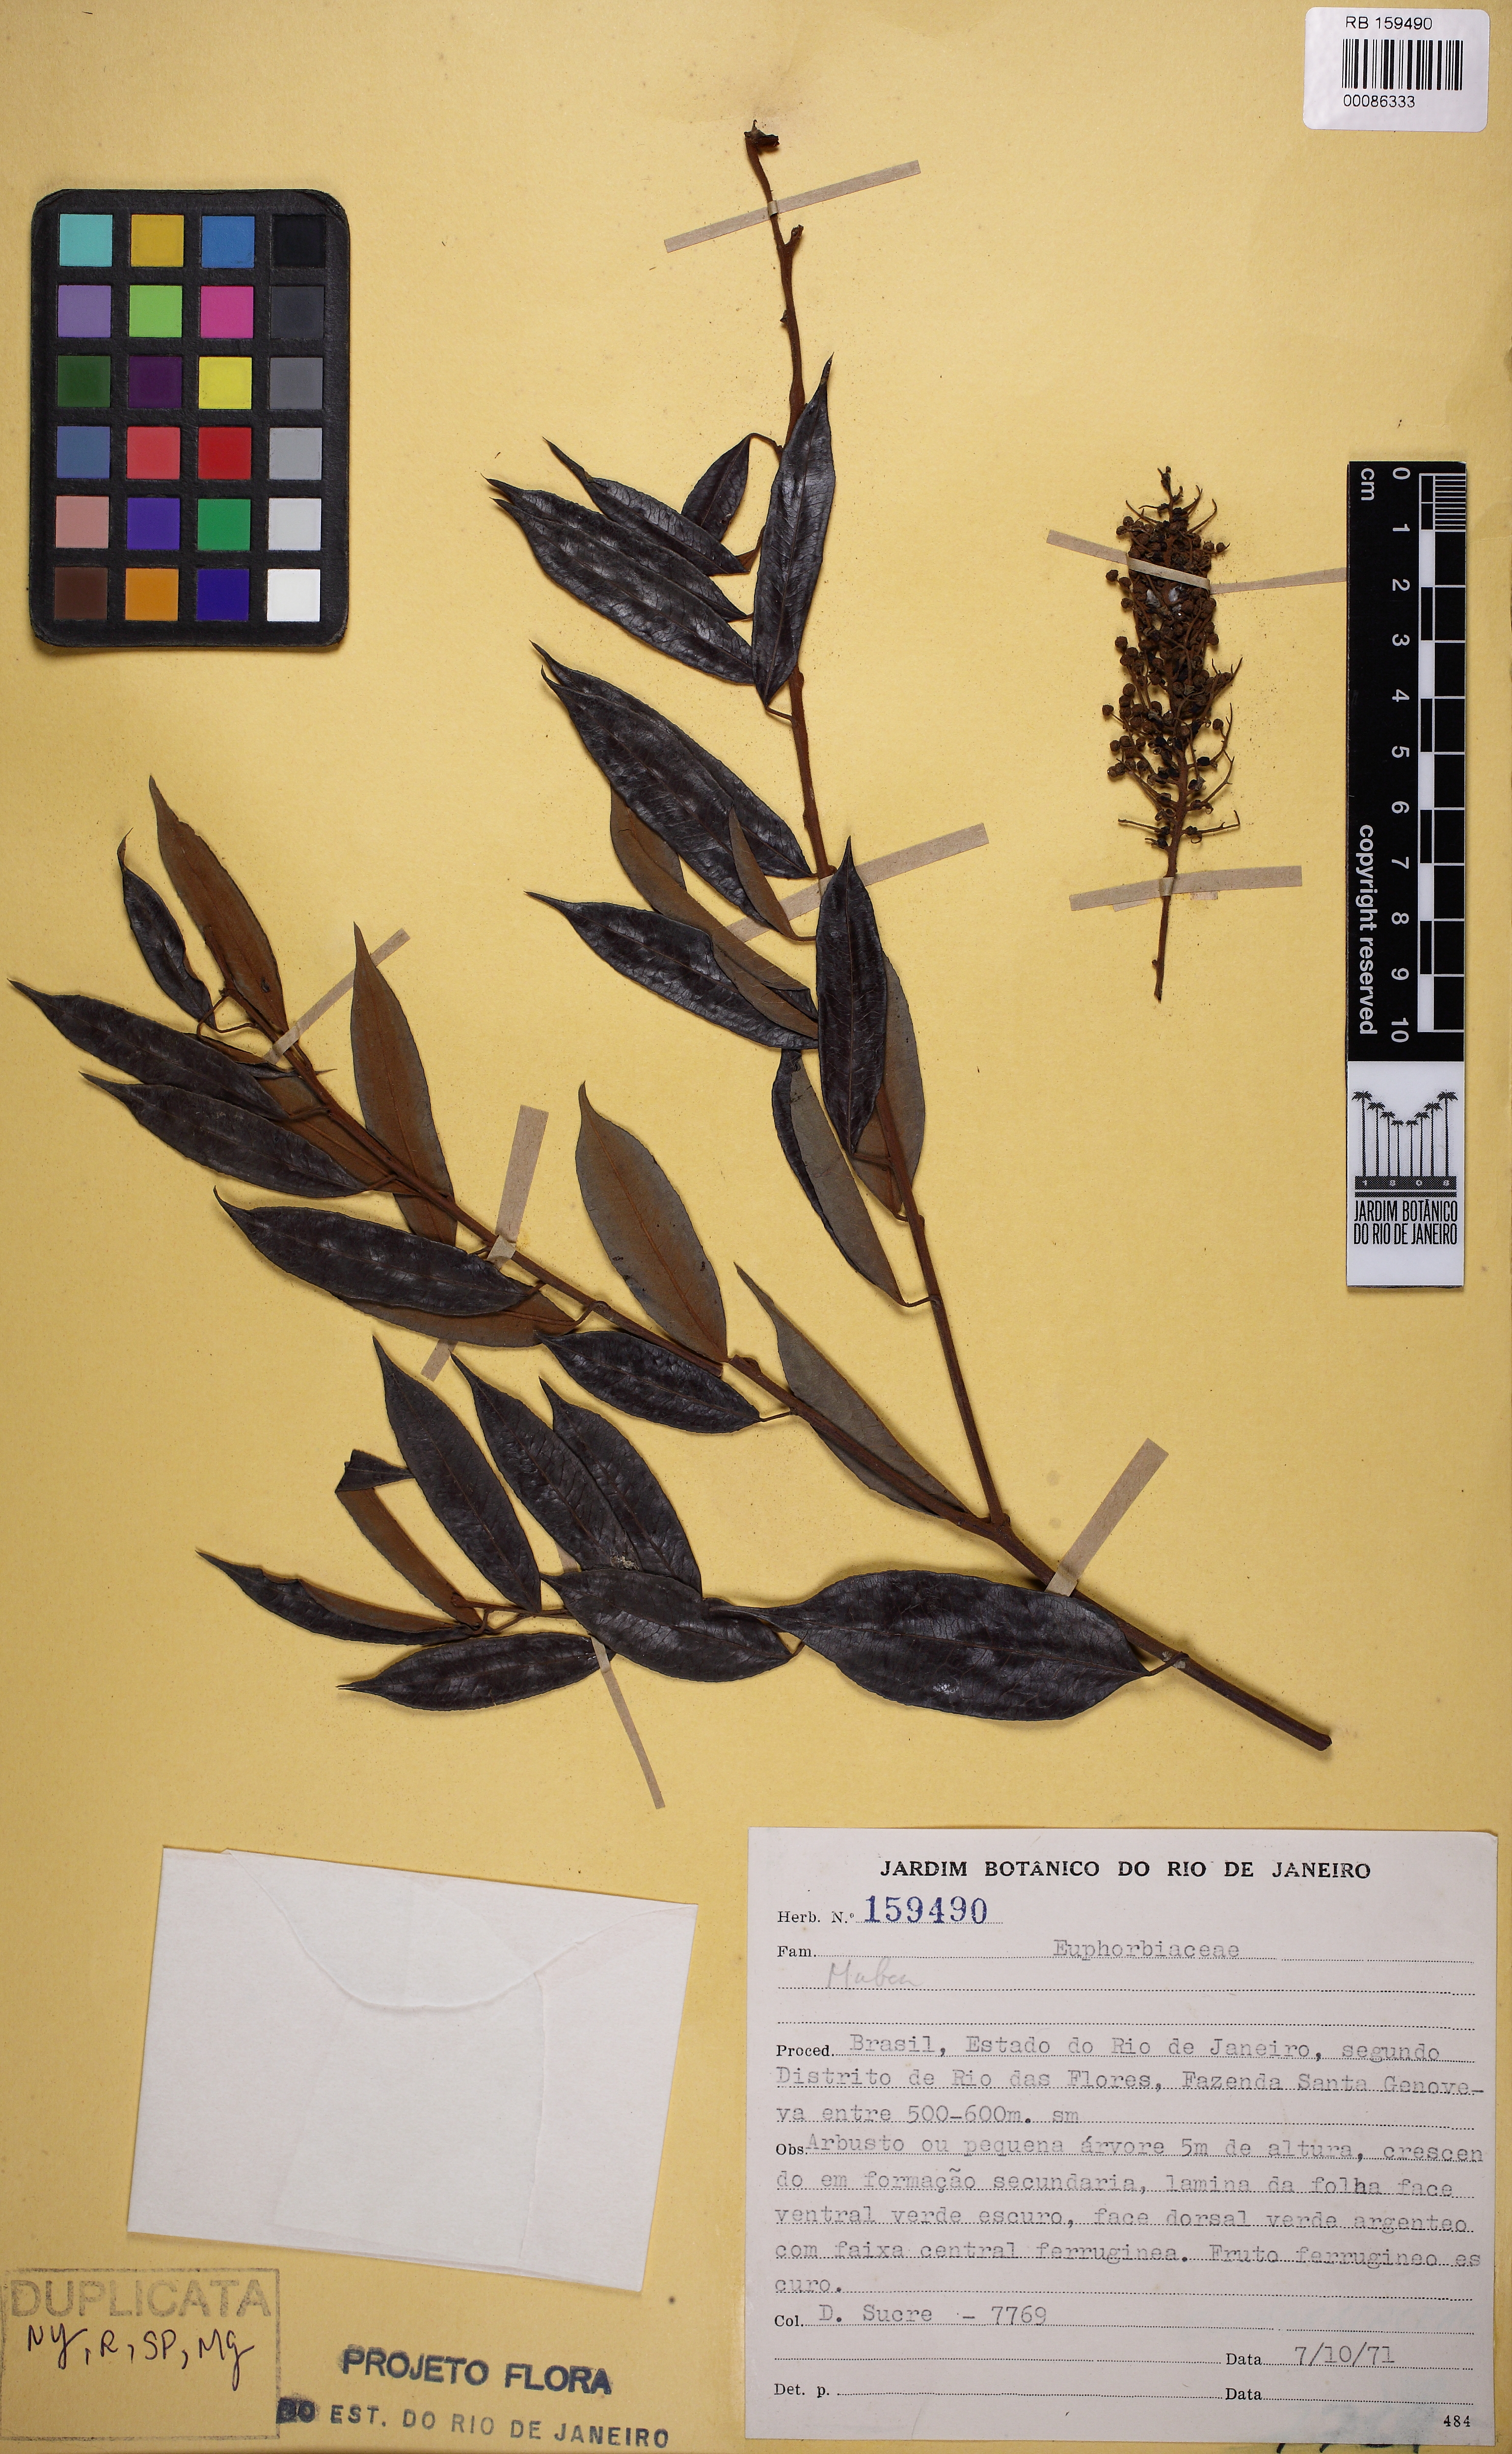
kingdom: Plantae
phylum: Tracheophyta
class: Magnoliopsida
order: Malpighiales
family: Euphorbiaceae
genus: Mabea
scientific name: Mabea fistulifera
